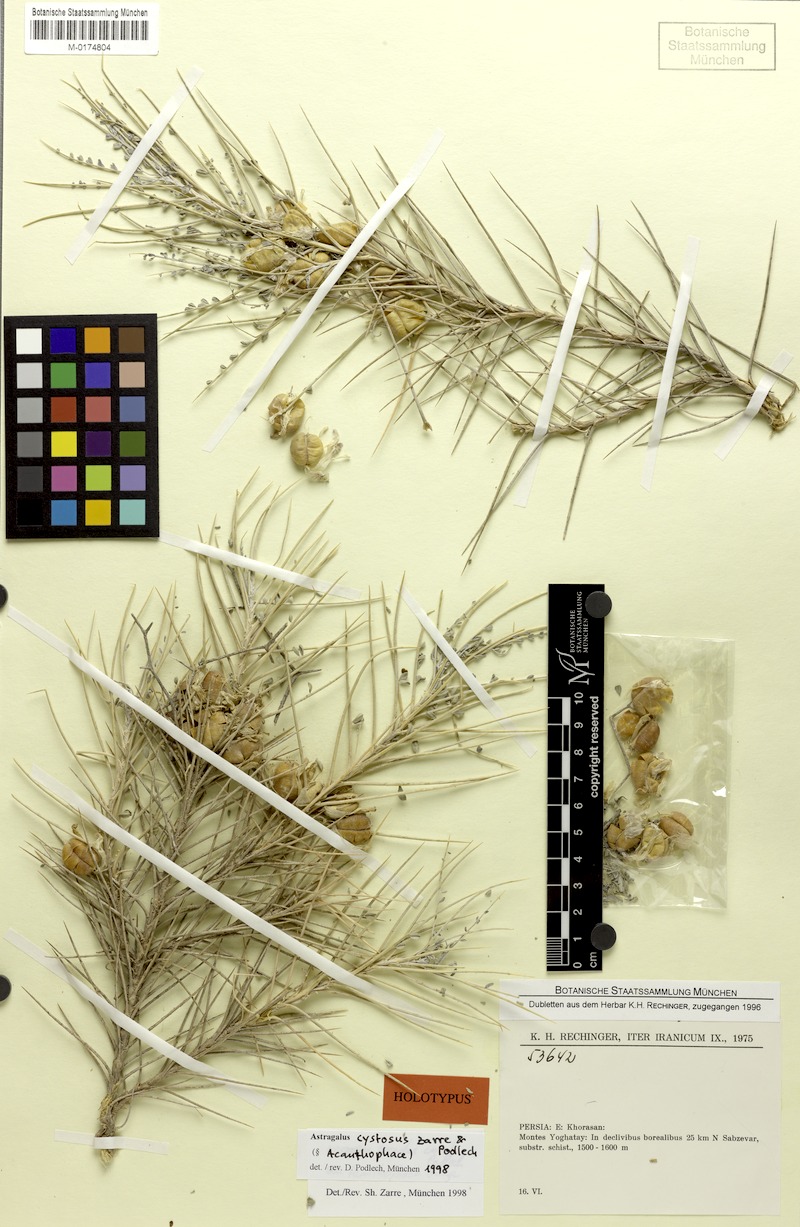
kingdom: Plantae
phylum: Tracheophyta
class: Magnoliopsida
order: Fabales
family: Fabaceae
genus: Astragalus
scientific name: Astragalus cystosus
